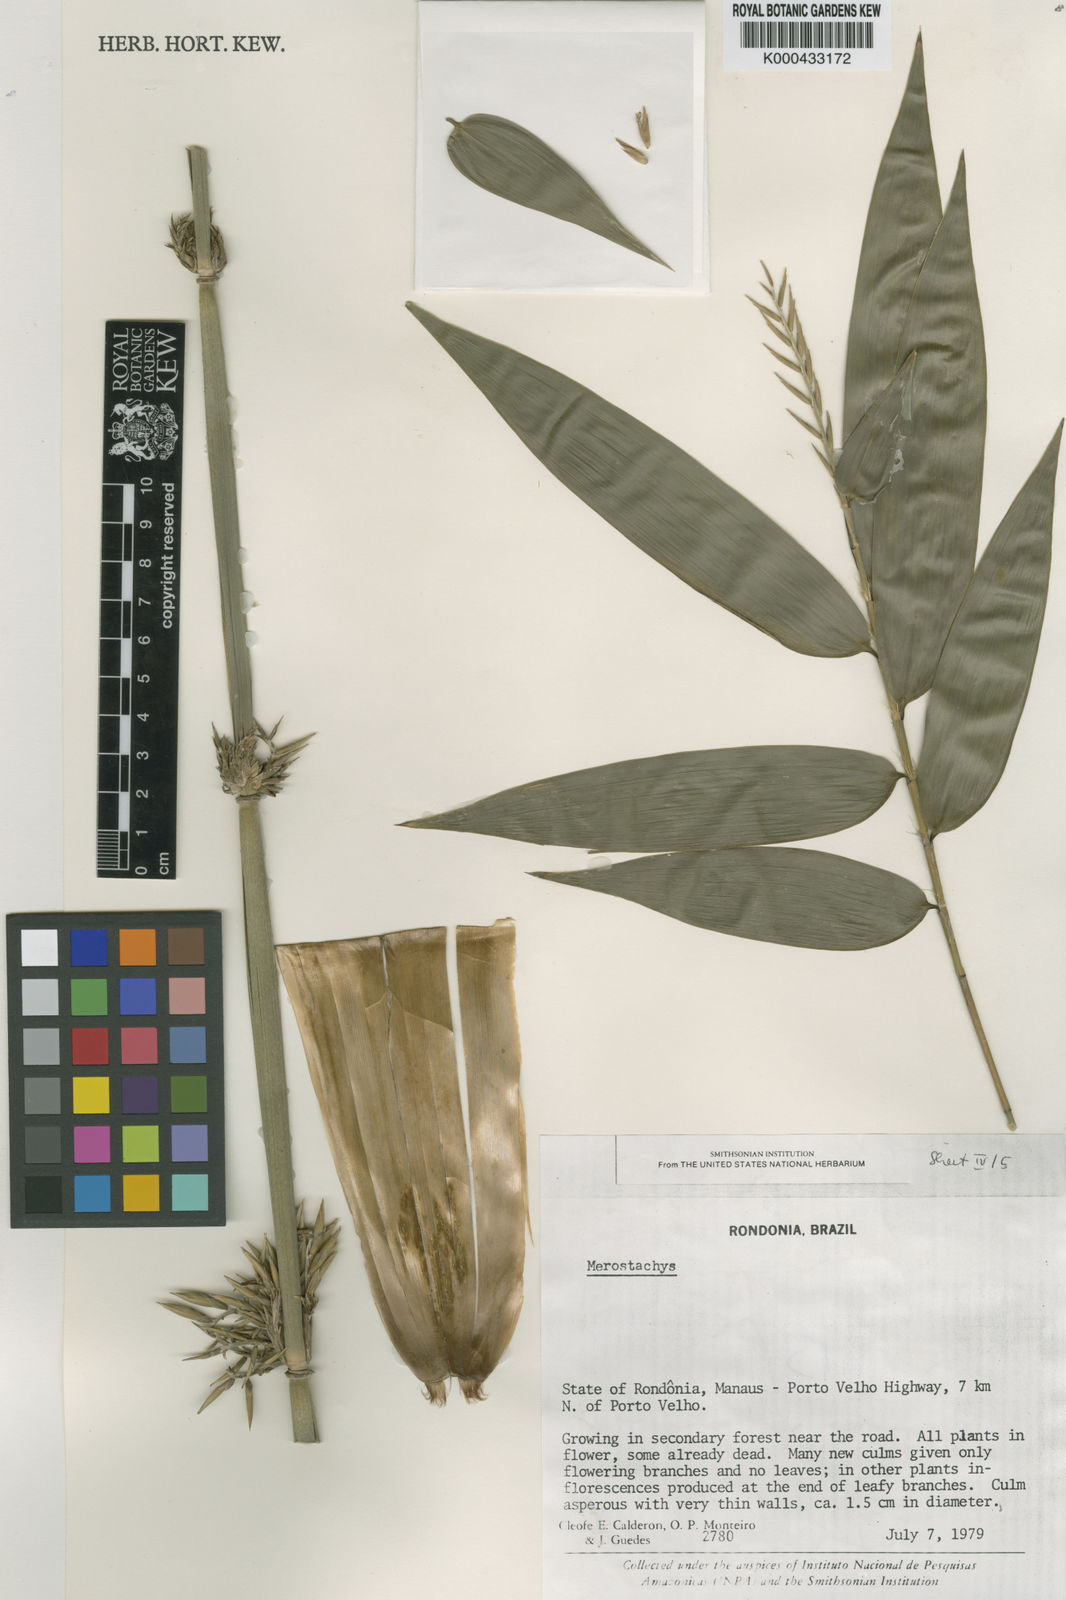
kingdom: Plantae
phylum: Tracheophyta
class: Liliopsida
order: Poales
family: Poaceae
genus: Merostachys
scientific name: Merostachys
